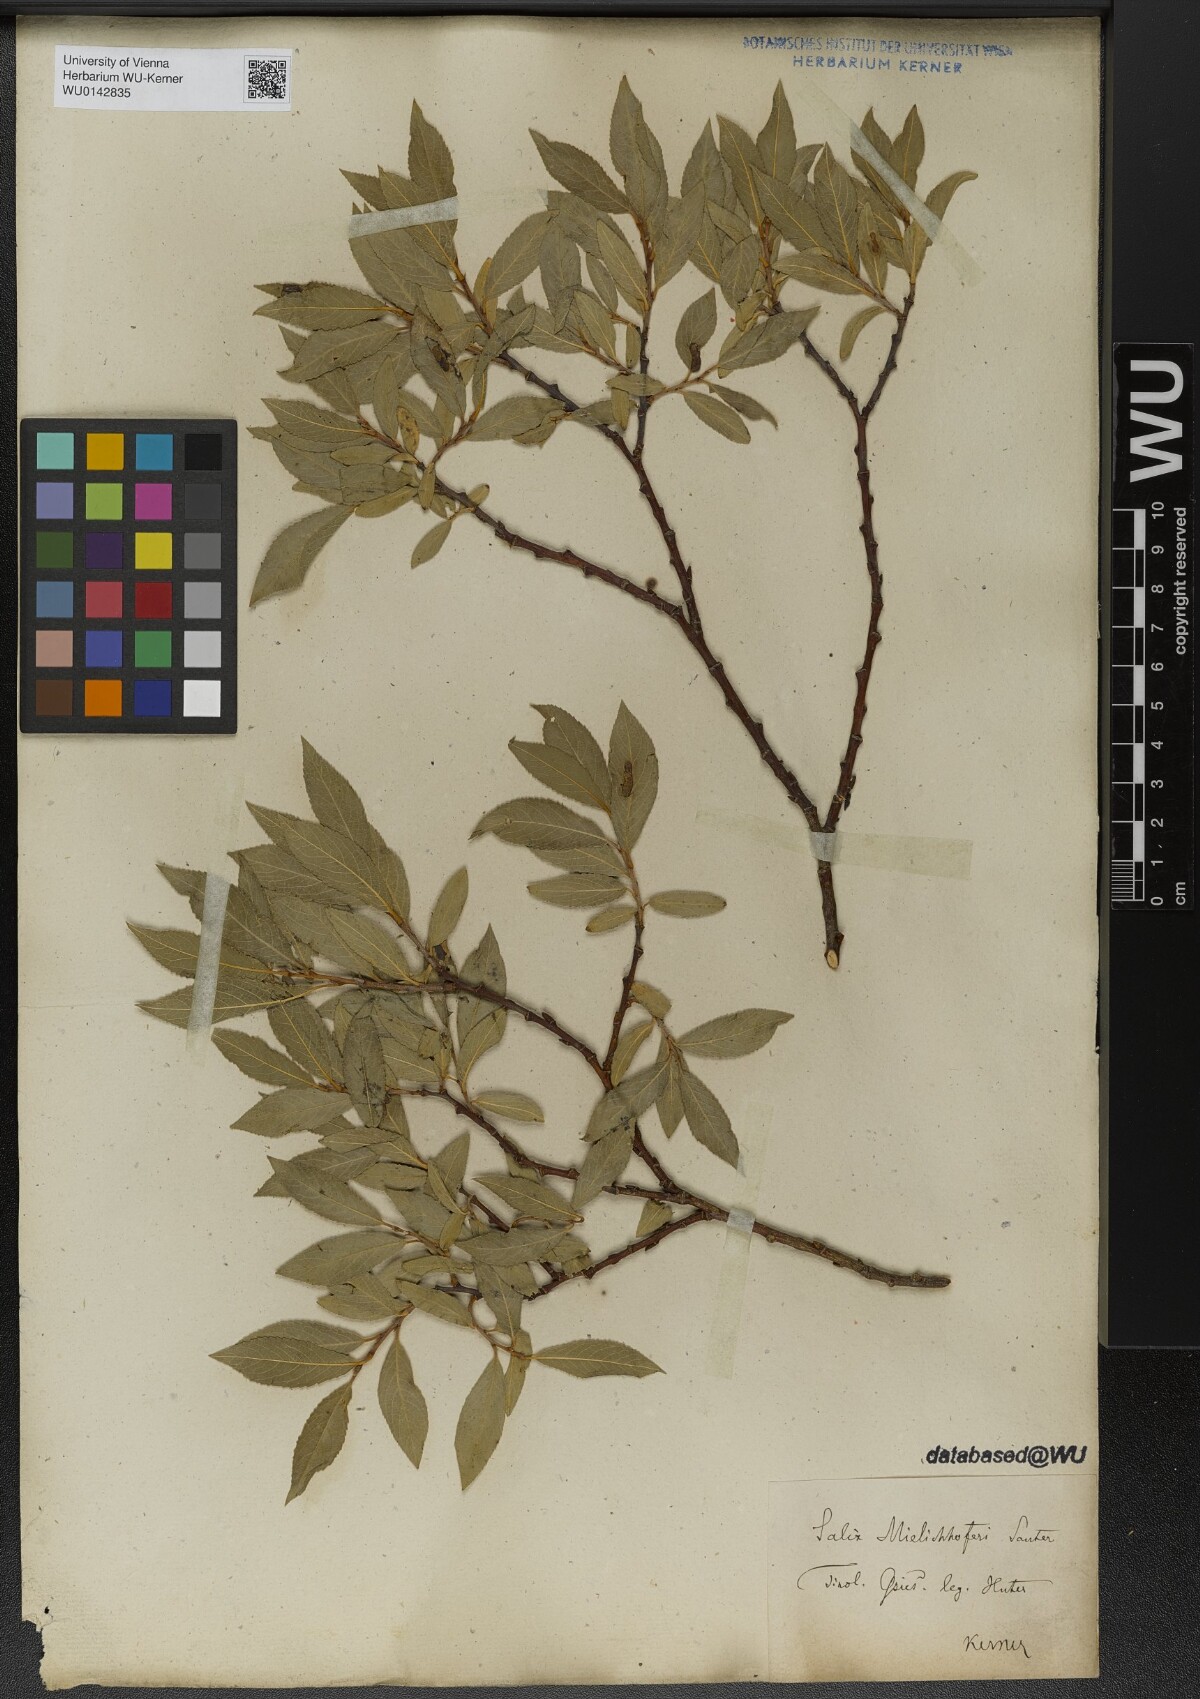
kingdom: Plantae
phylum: Tracheophyta
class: Magnoliopsida
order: Malpighiales
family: Salicaceae
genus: Salix
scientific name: Salix mielichhoferi
